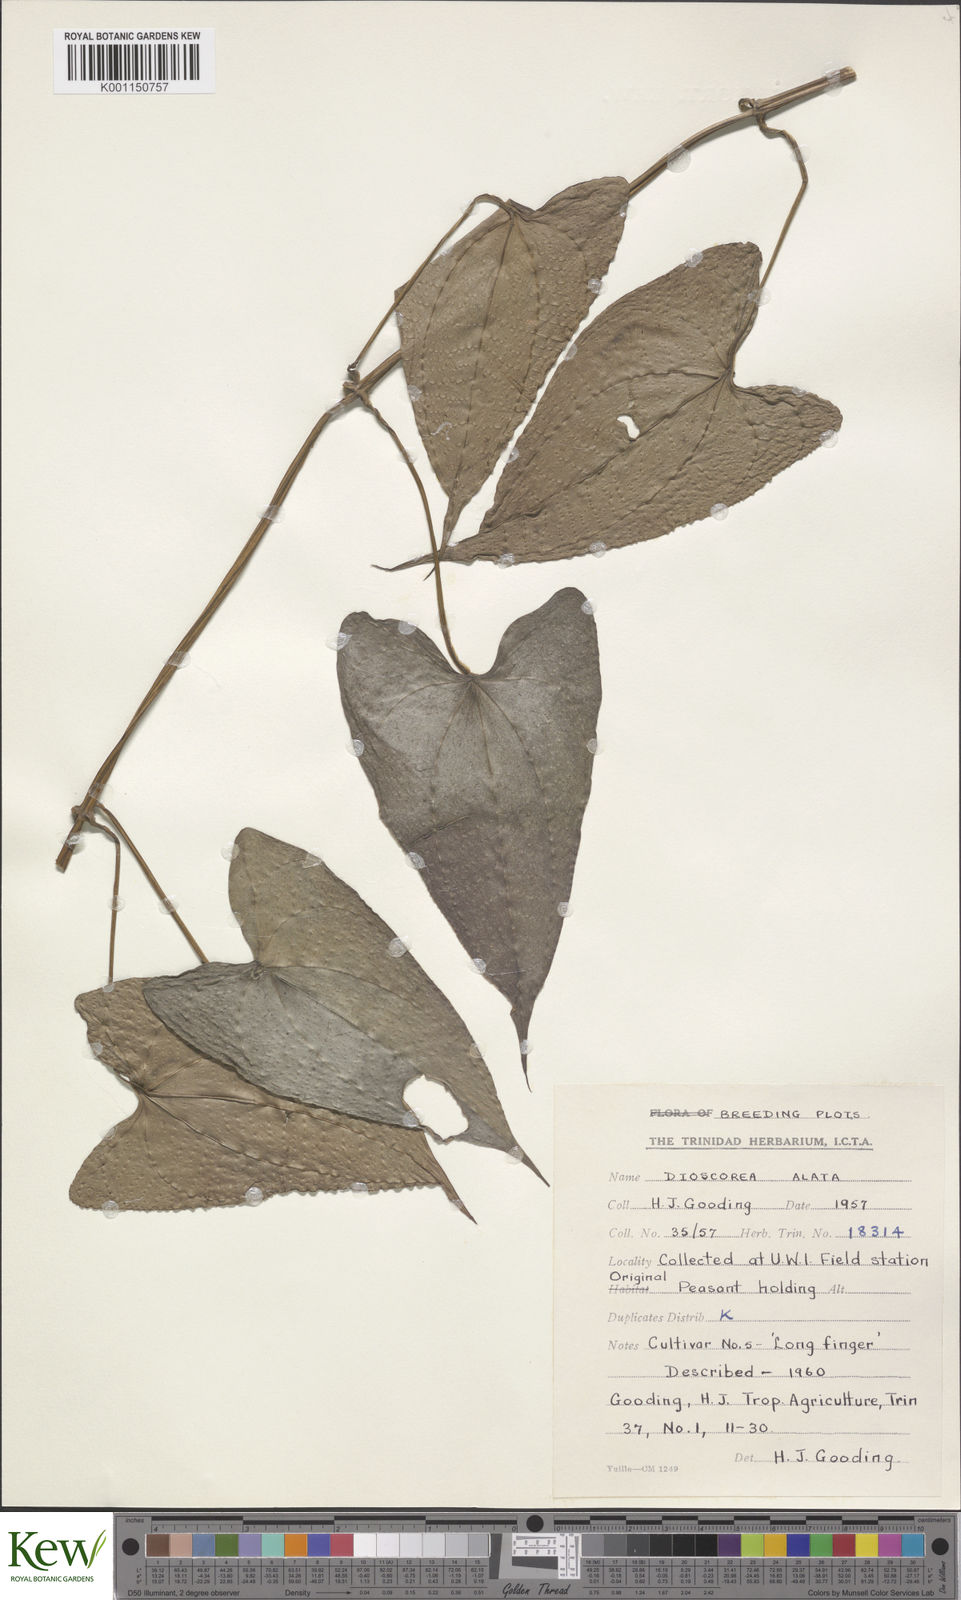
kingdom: Plantae
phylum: Tracheophyta
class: Liliopsida
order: Dioscoreales
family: Dioscoreaceae
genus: Dioscorea
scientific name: Dioscorea alata
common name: Water yam
